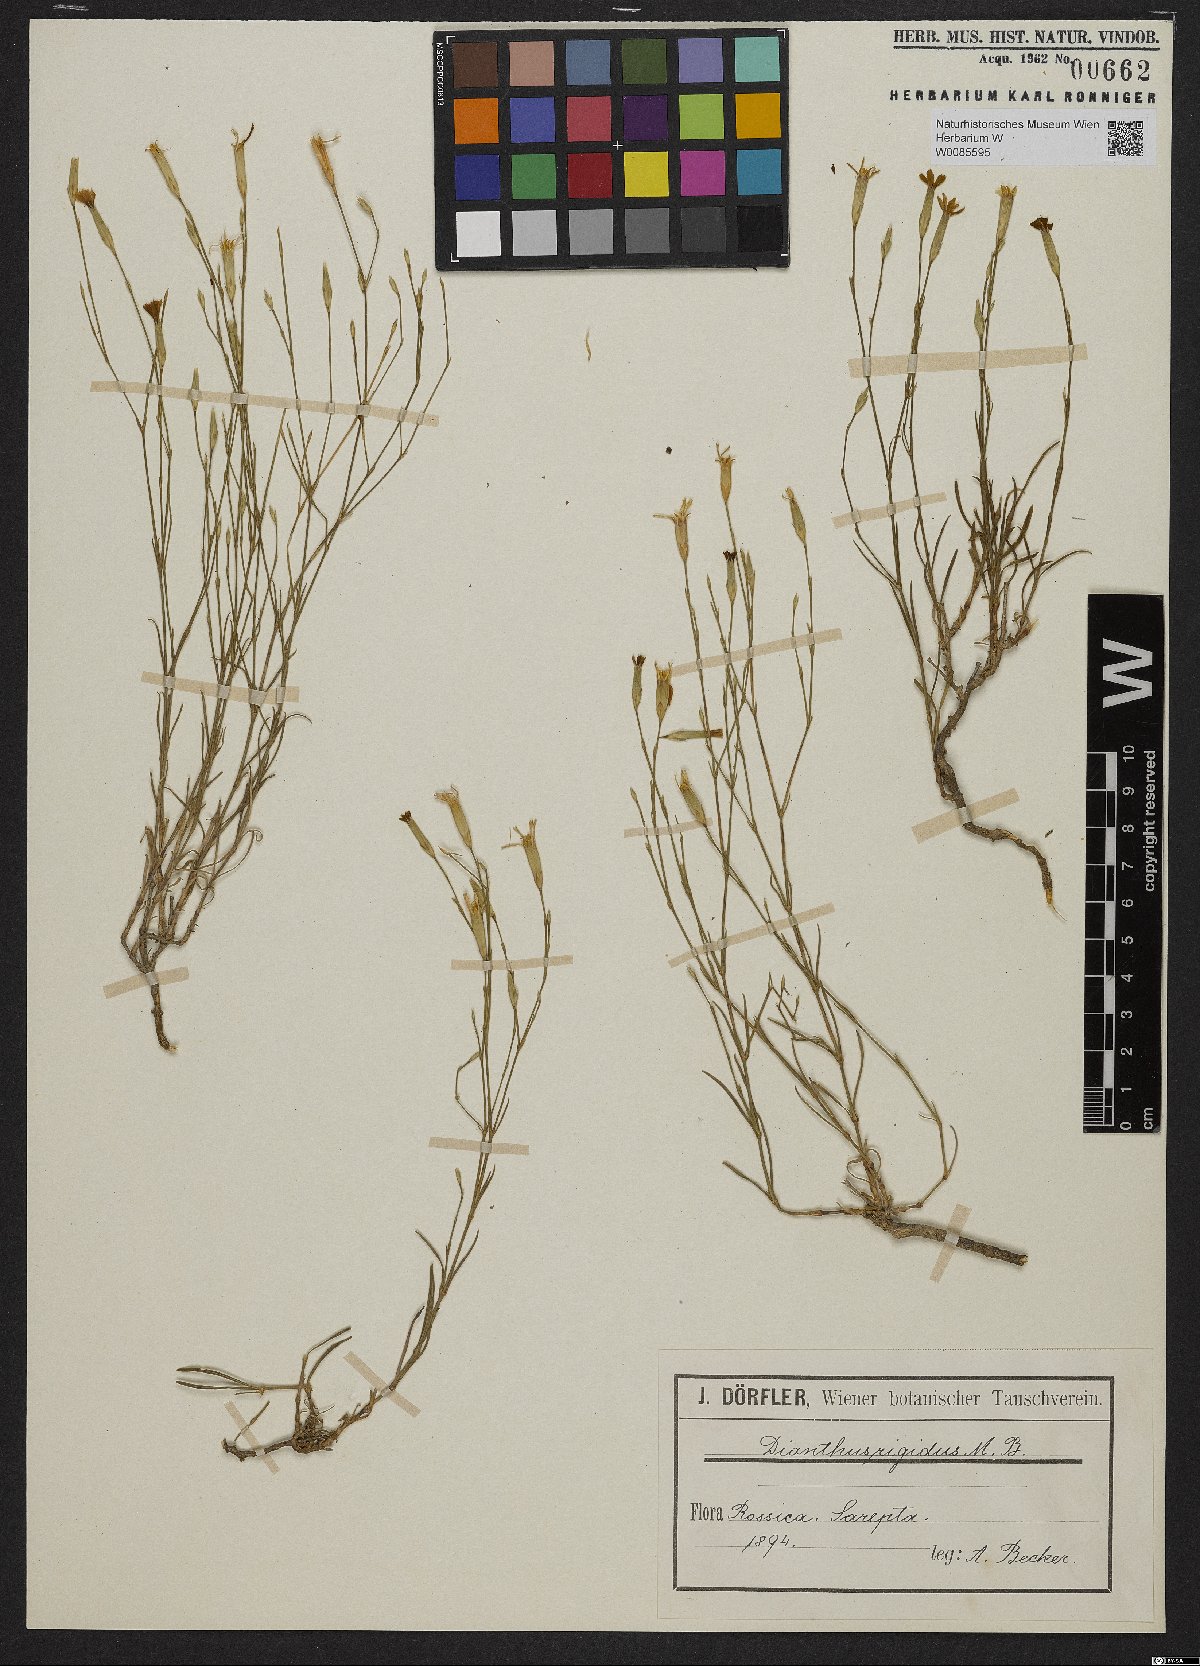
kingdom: Plantae
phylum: Tracheophyta
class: Magnoliopsida
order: Caryophyllales
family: Caryophyllaceae
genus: Dianthus
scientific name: Dianthus rigidus
